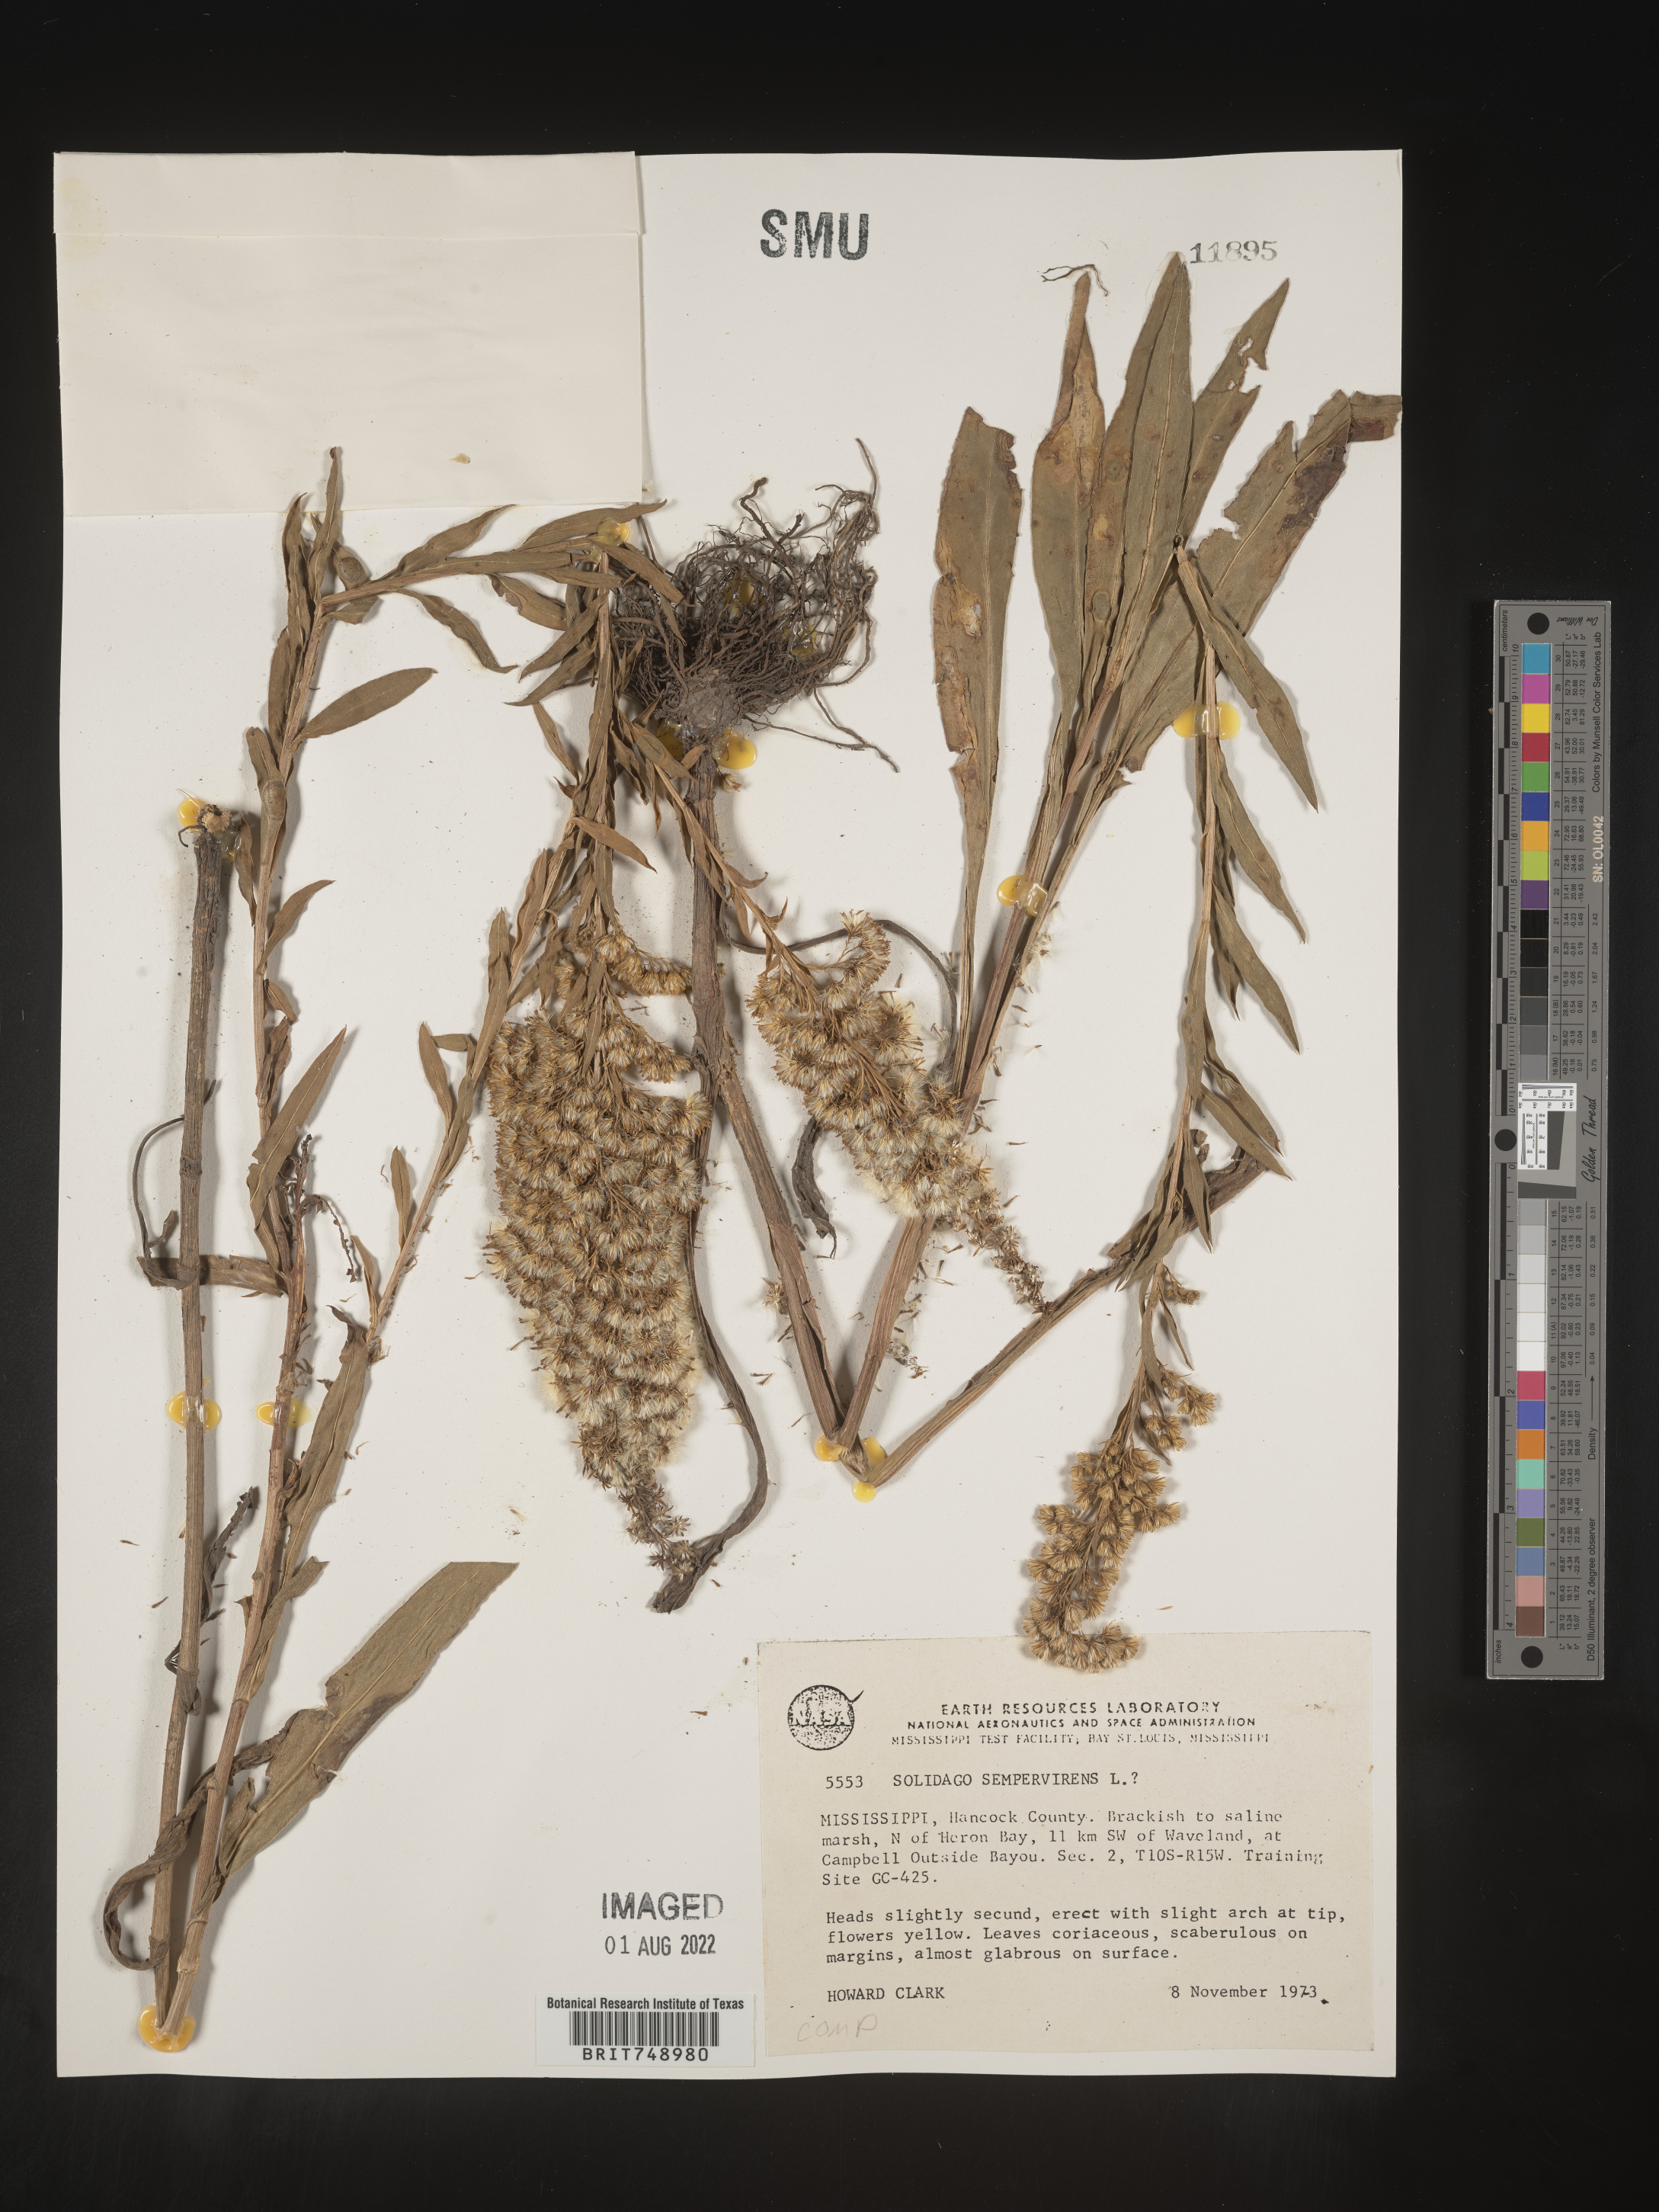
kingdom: Plantae
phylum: Tracheophyta
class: Magnoliopsida
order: Asterales
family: Asteraceae
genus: Solidago
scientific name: Solidago sempervirens
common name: Salt-marsh goldenrod
